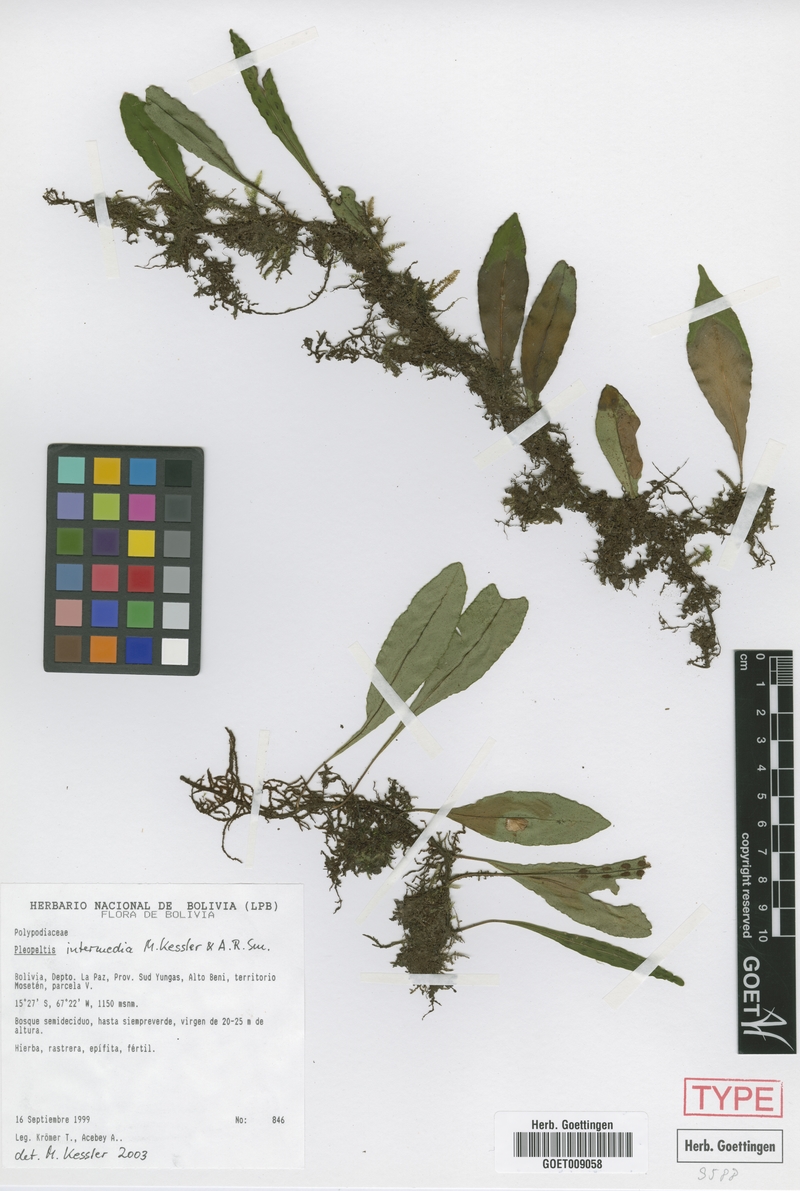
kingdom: Plantae
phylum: Tracheophyta
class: Polypodiopsida
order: Polypodiales
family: Polypodiaceae
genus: Pleopeltis
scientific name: Pleopeltis intermedia
